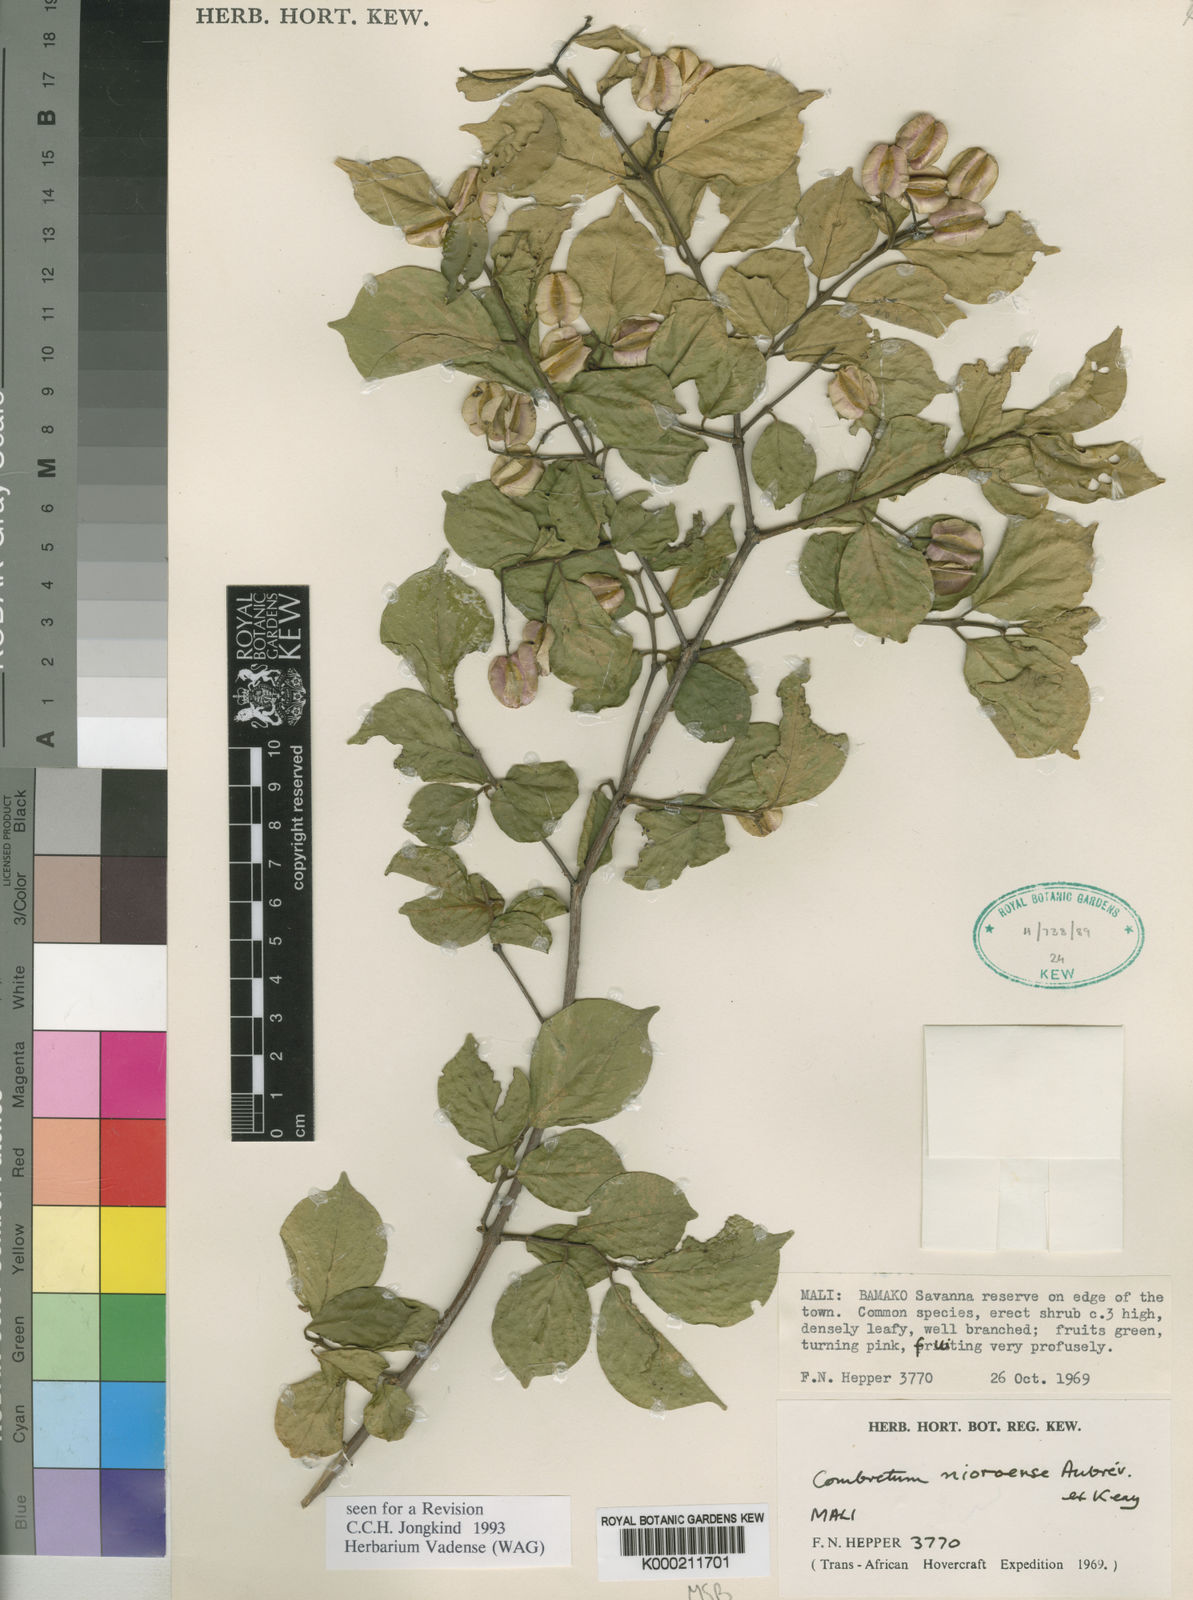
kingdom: Plantae
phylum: Tracheophyta
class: Magnoliopsida
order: Myrtales
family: Combretaceae
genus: Combretum
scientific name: Combretum
